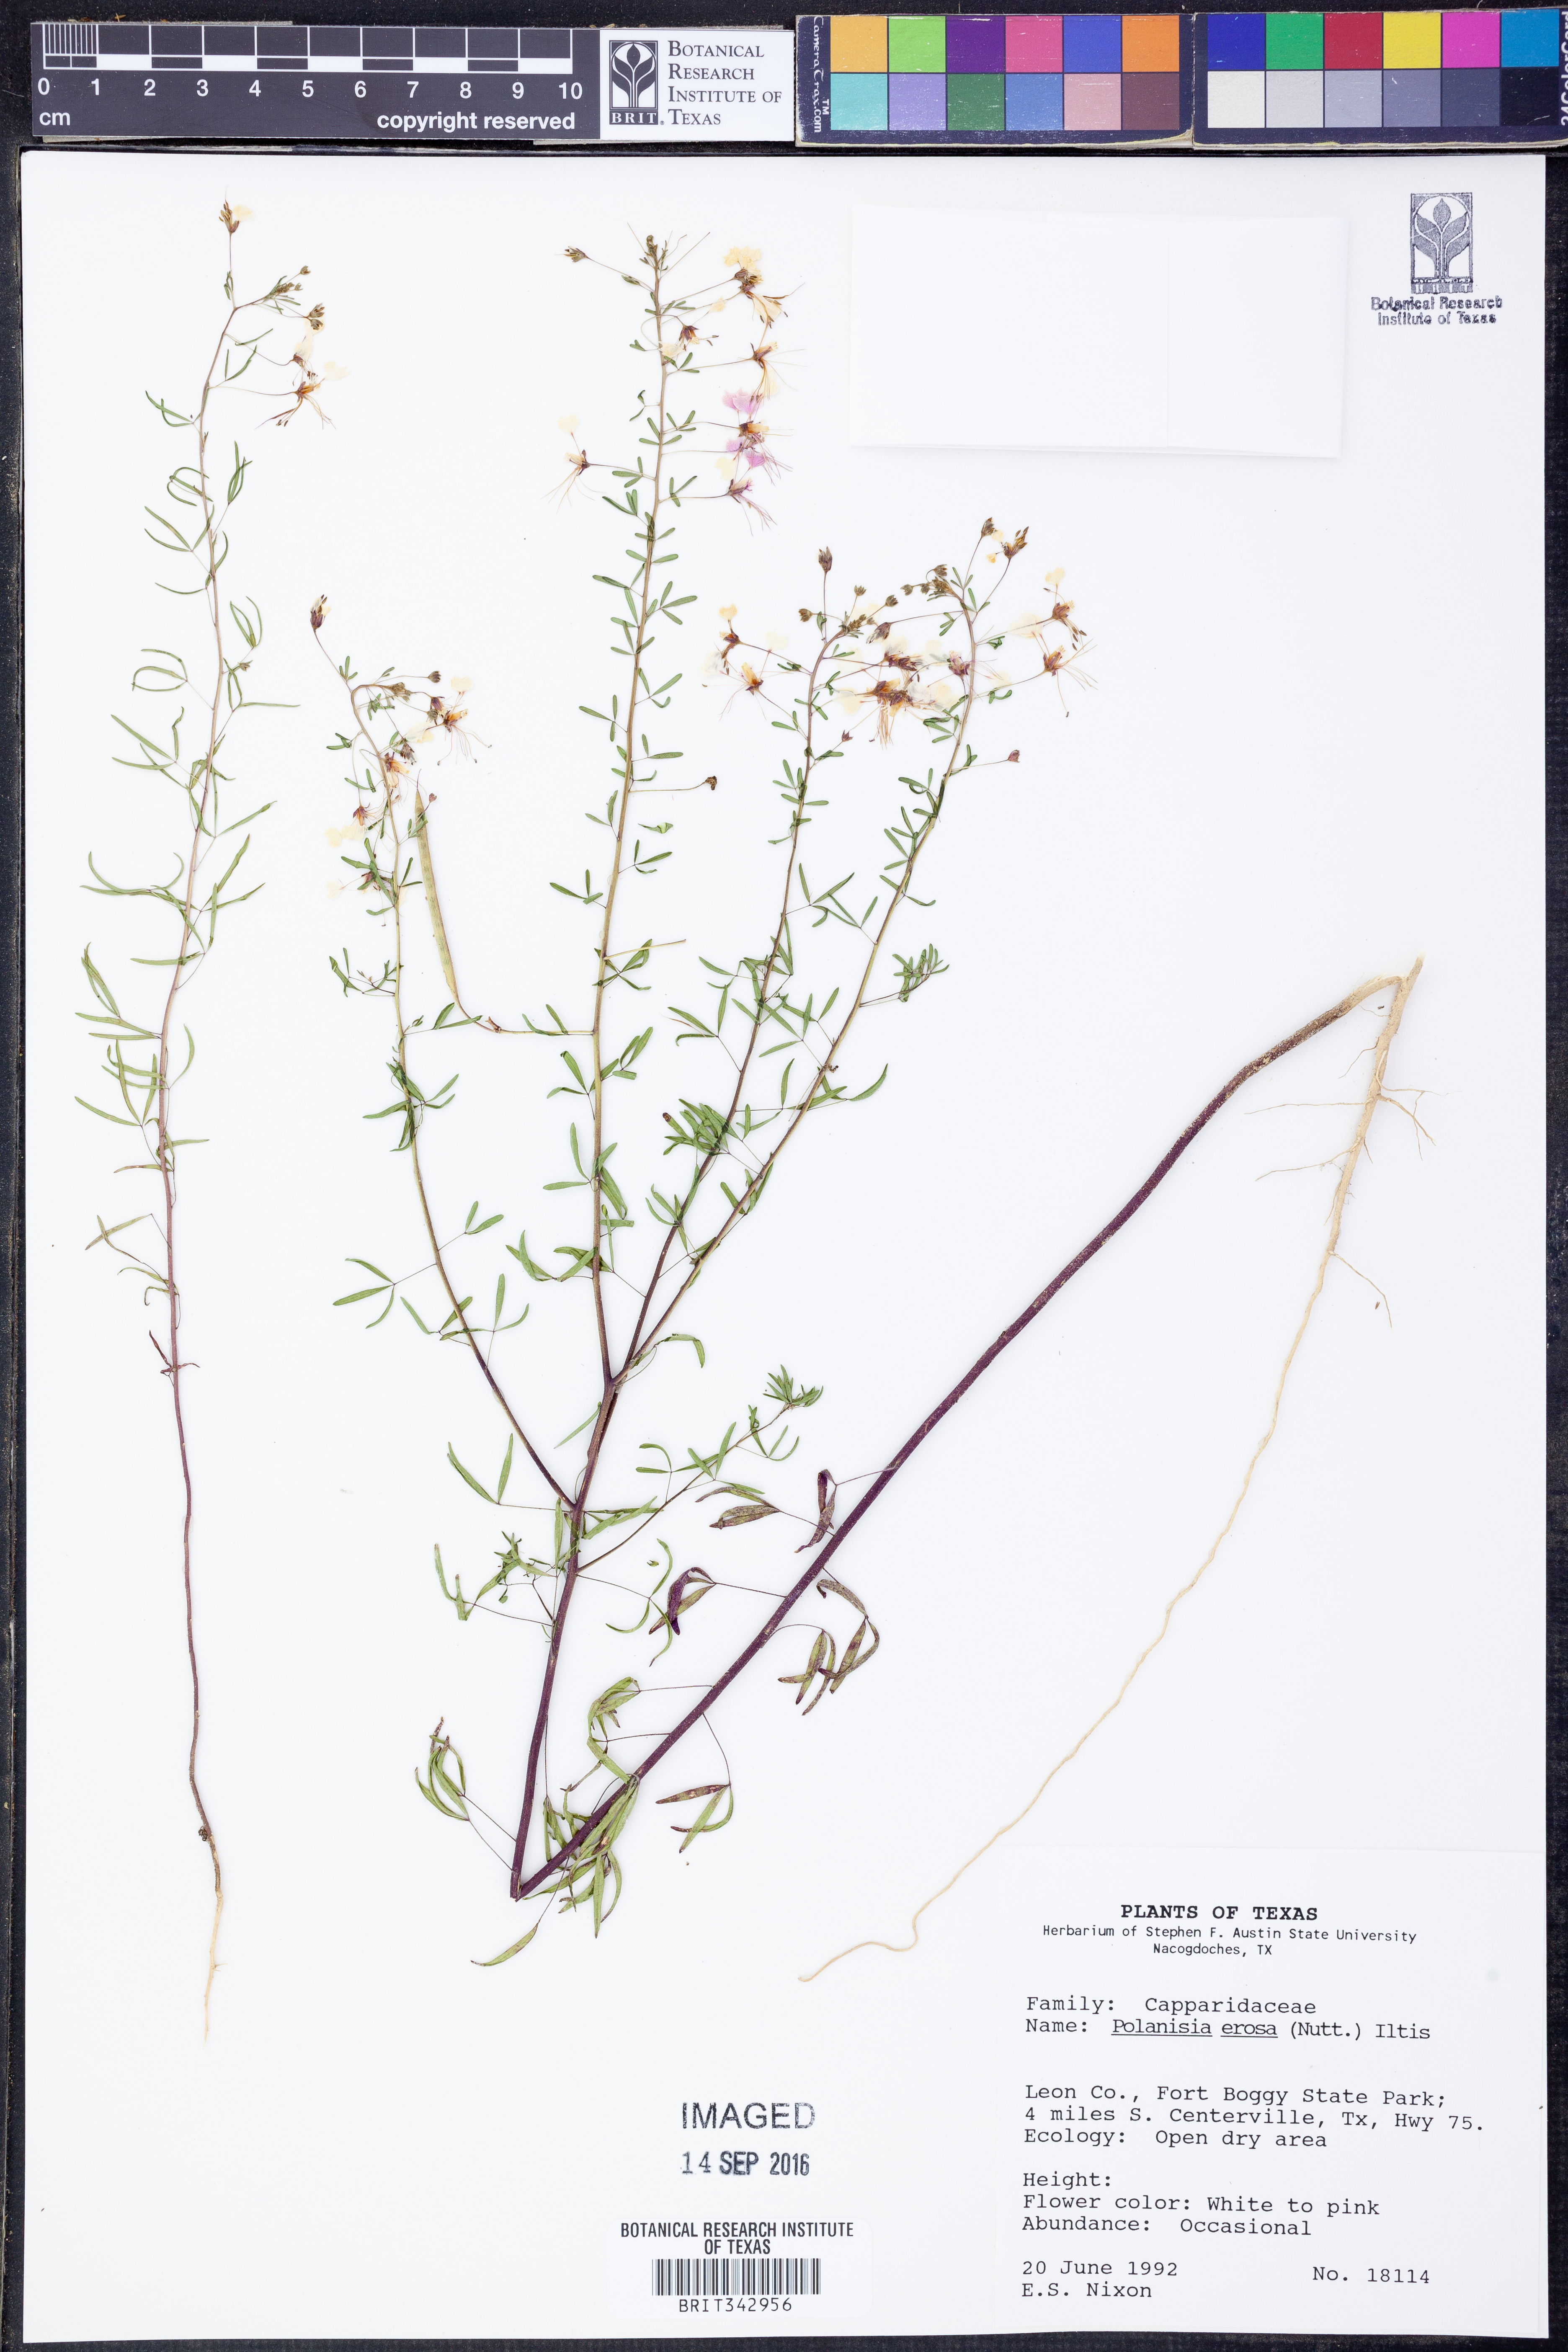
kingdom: Plantae
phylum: Tracheophyta
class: Magnoliopsida
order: Brassicales
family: Cleomaceae
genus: Polanisia
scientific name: Polanisia erosa
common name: Large clammyweed
